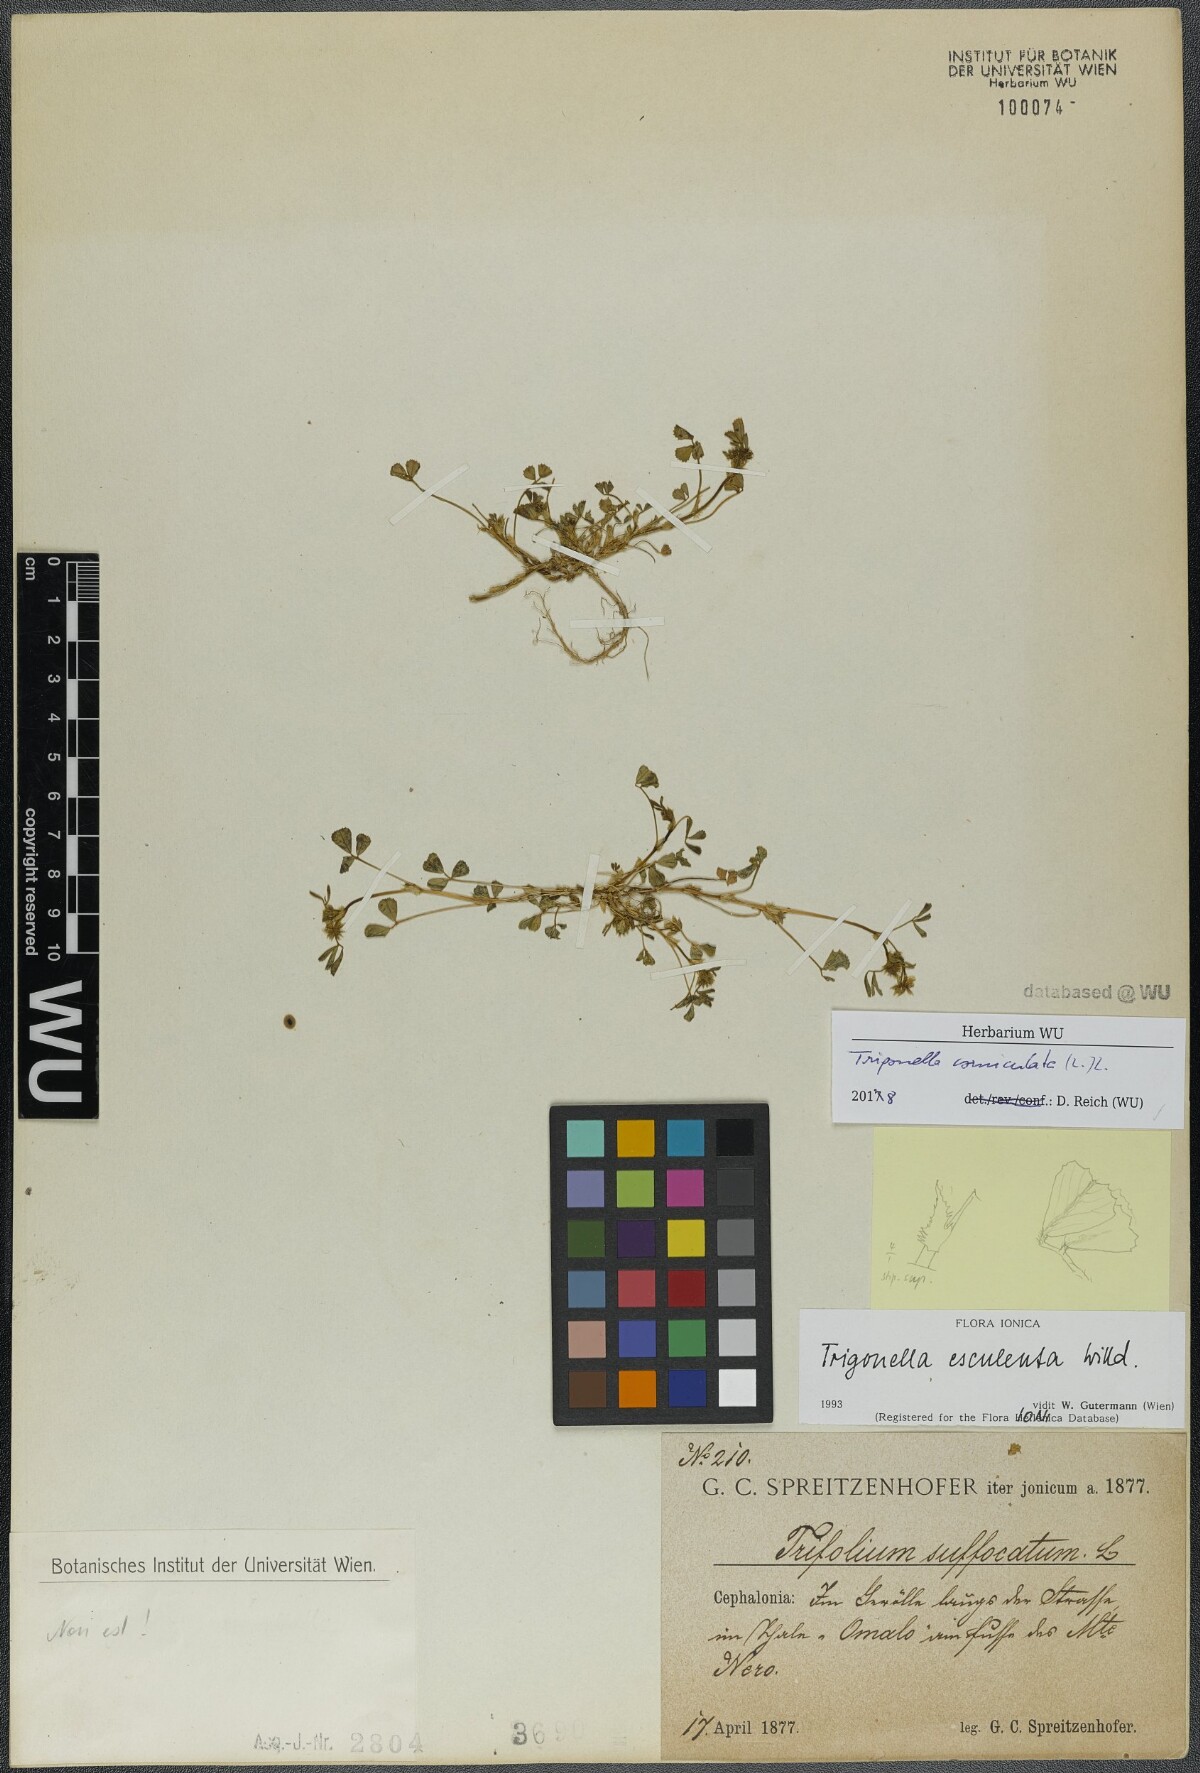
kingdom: Plantae
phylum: Tracheophyta
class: Magnoliopsida
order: Fabales
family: Fabaceae
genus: Trigonella
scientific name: Trigonella balansae
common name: Sickle-fruited fenugreek
